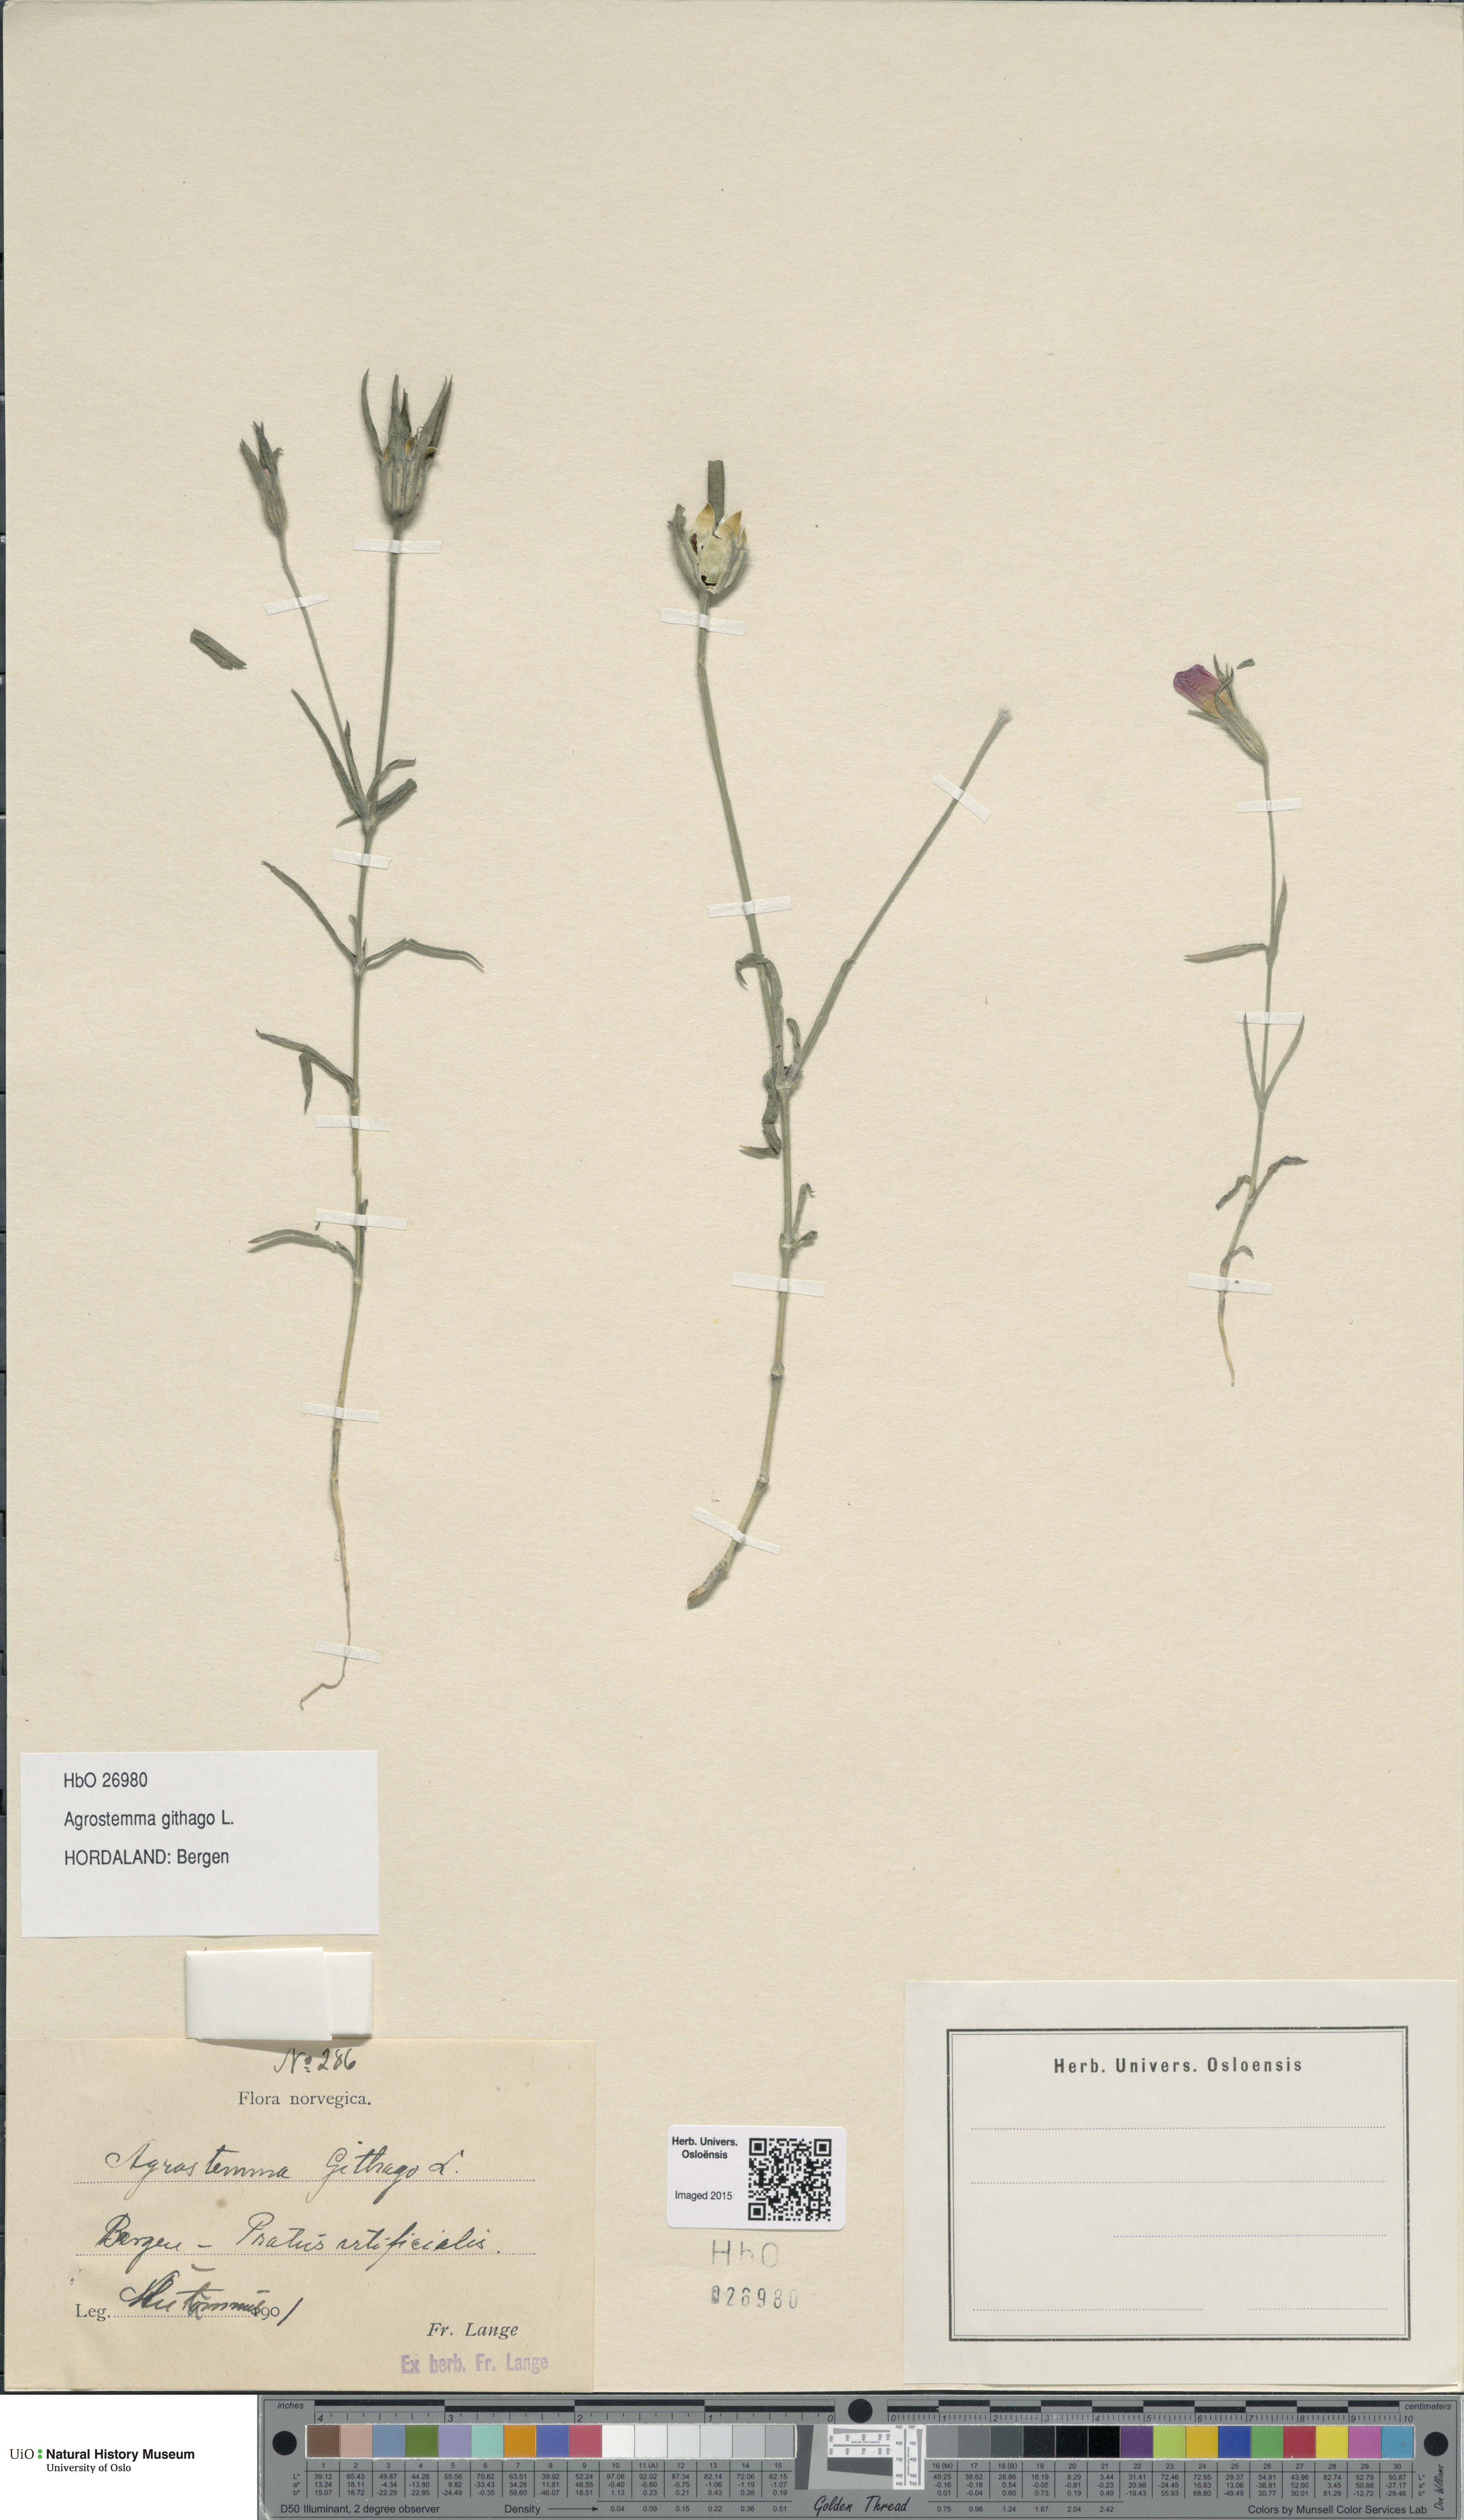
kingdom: Plantae
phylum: Tracheophyta
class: Magnoliopsida
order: Caryophyllales
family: Caryophyllaceae
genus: Agrostemma
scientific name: Agrostemma githago
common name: Common corncockle
